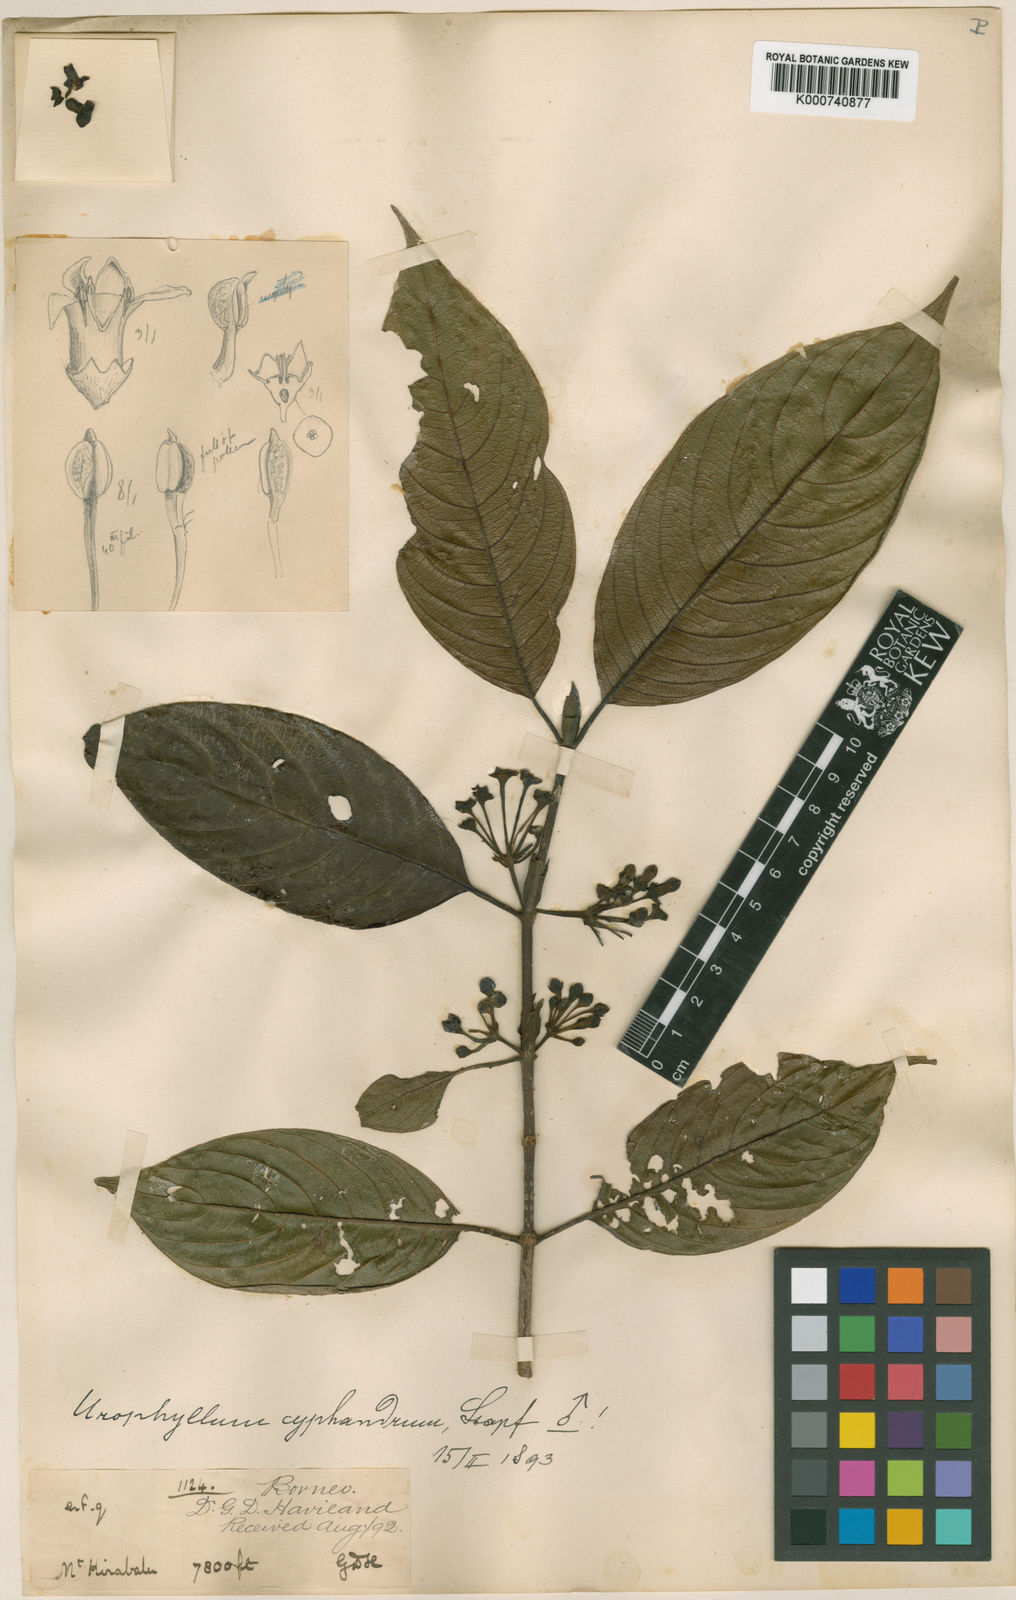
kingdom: Plantae
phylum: Tracheophyta
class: Magnoliopsida
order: Gentianales
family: Rubiaceae
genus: Urophyllum
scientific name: Urophyllum cyphandrum
